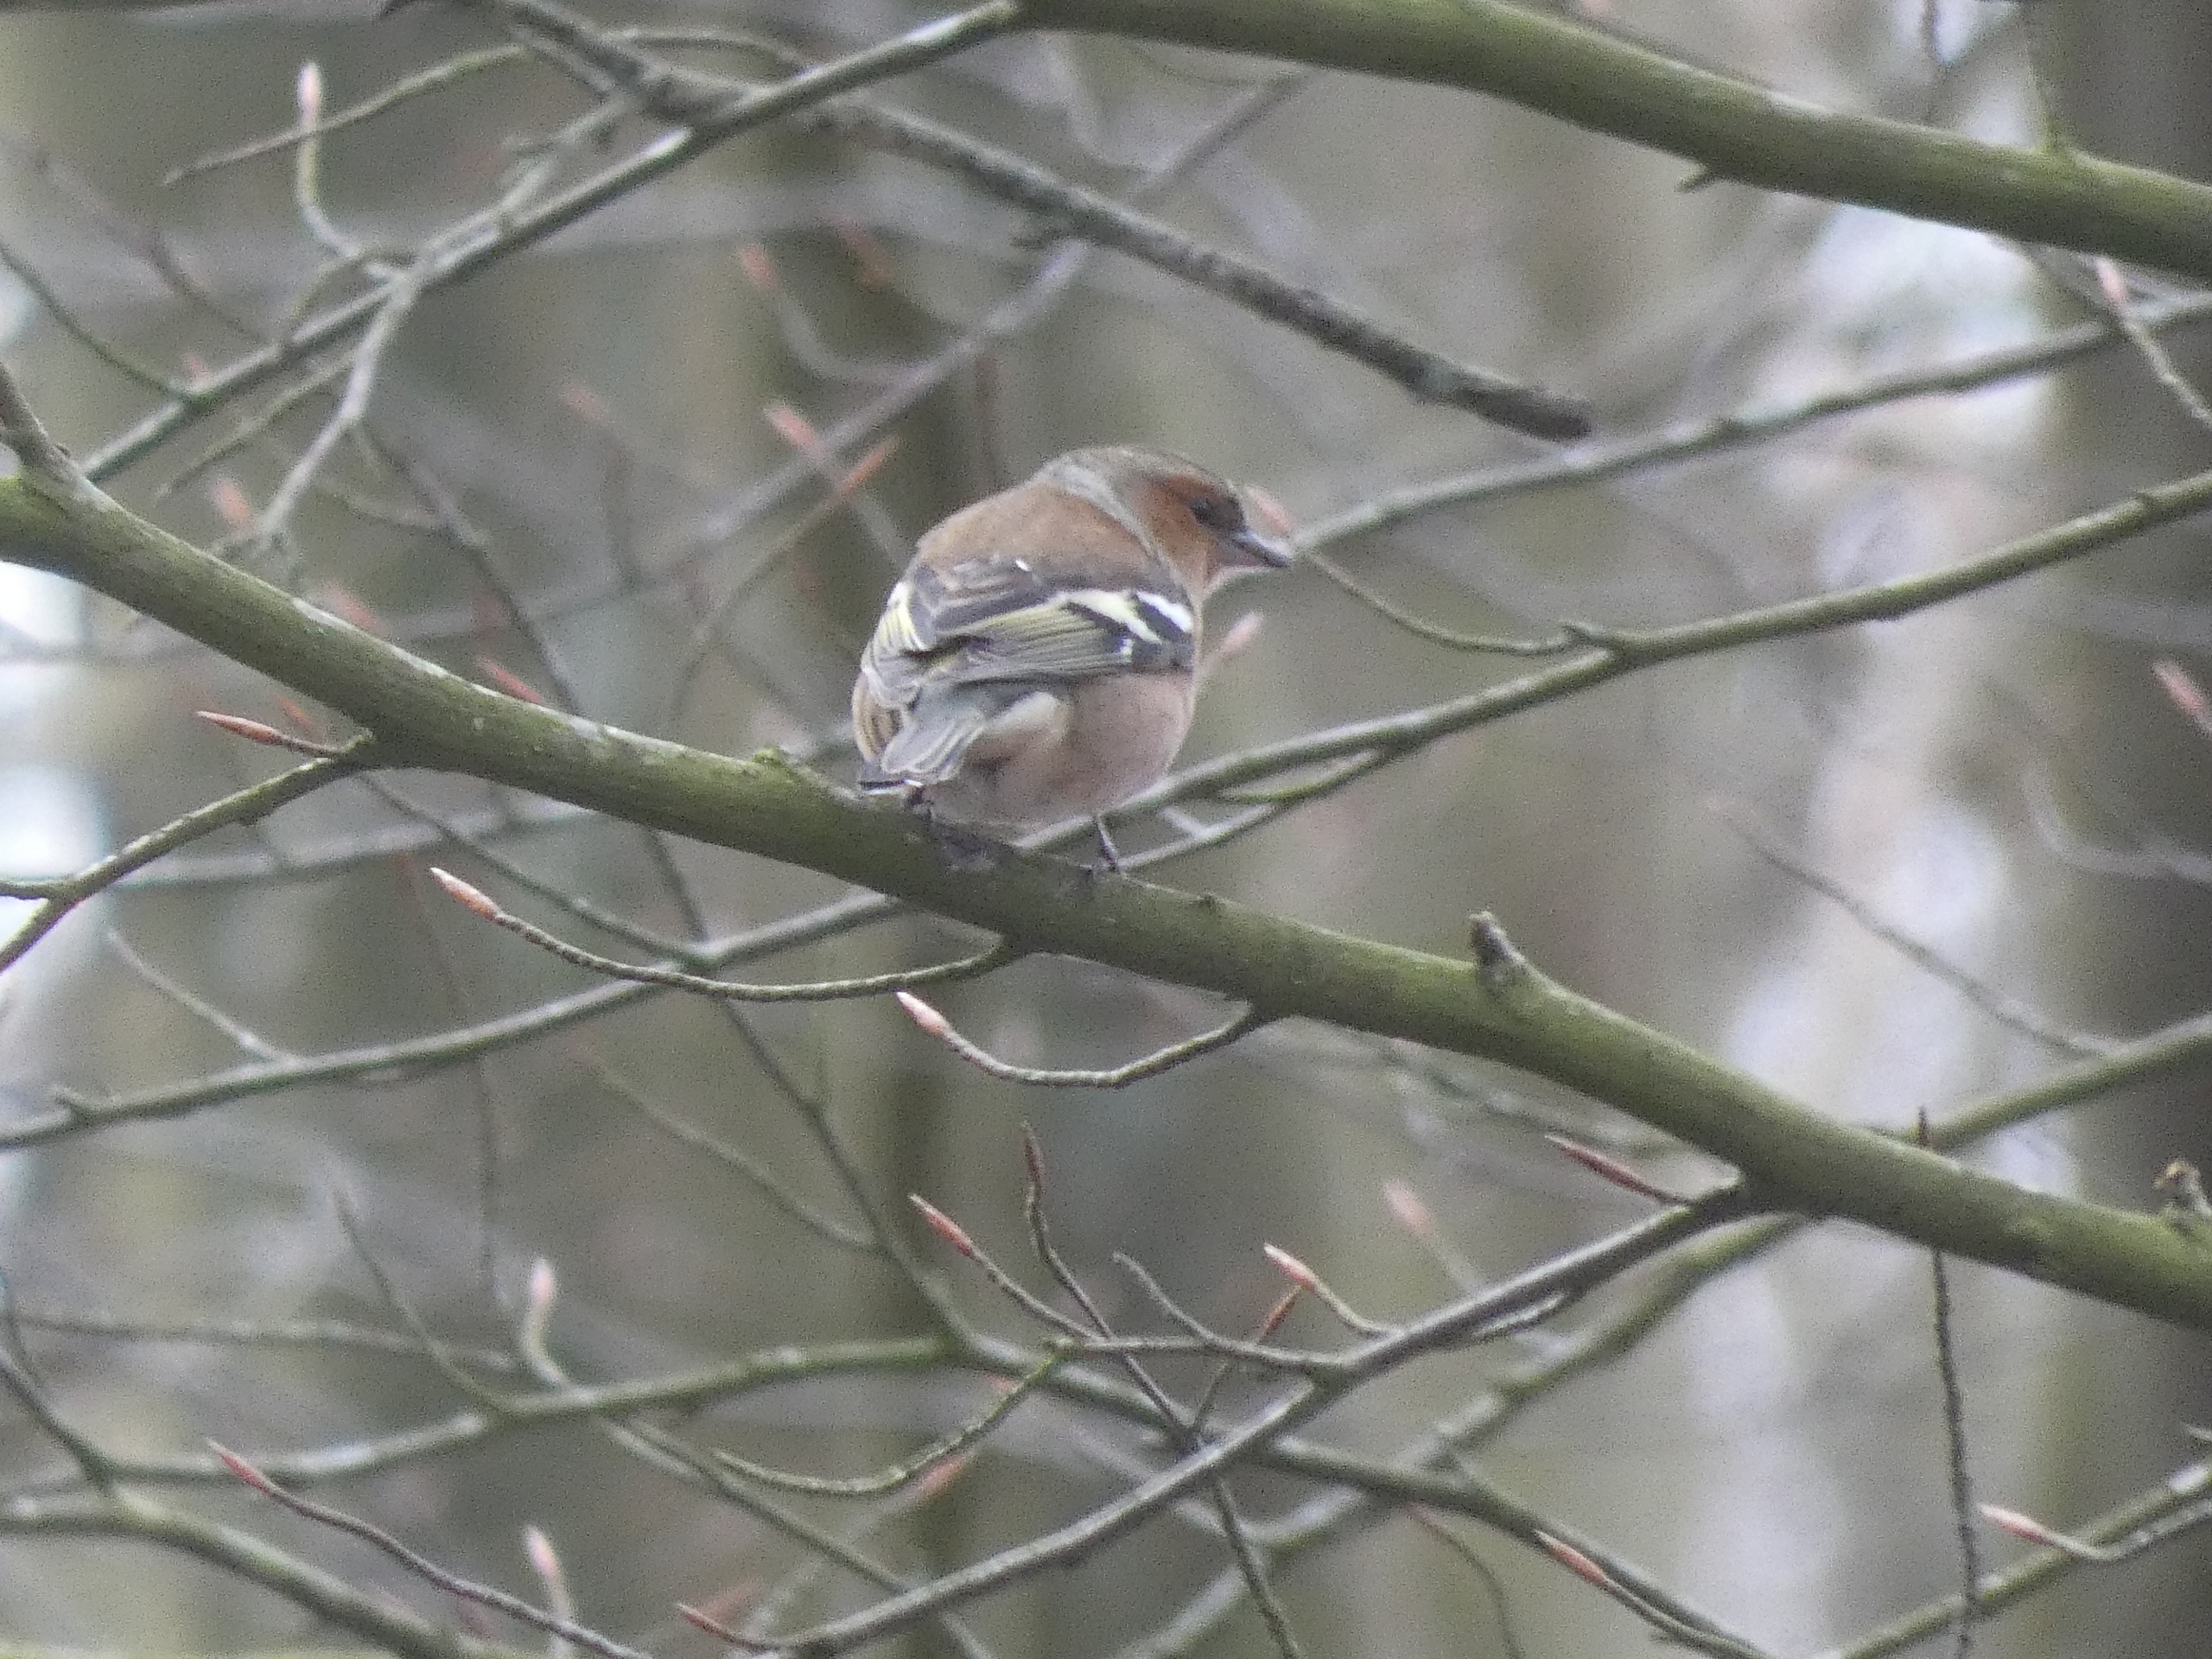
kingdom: Animalia
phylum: Chordata
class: Aves
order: Passeriformes
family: Fringillidae
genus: Fringilla
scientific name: Fringilla coelebs
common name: Bogfinke
